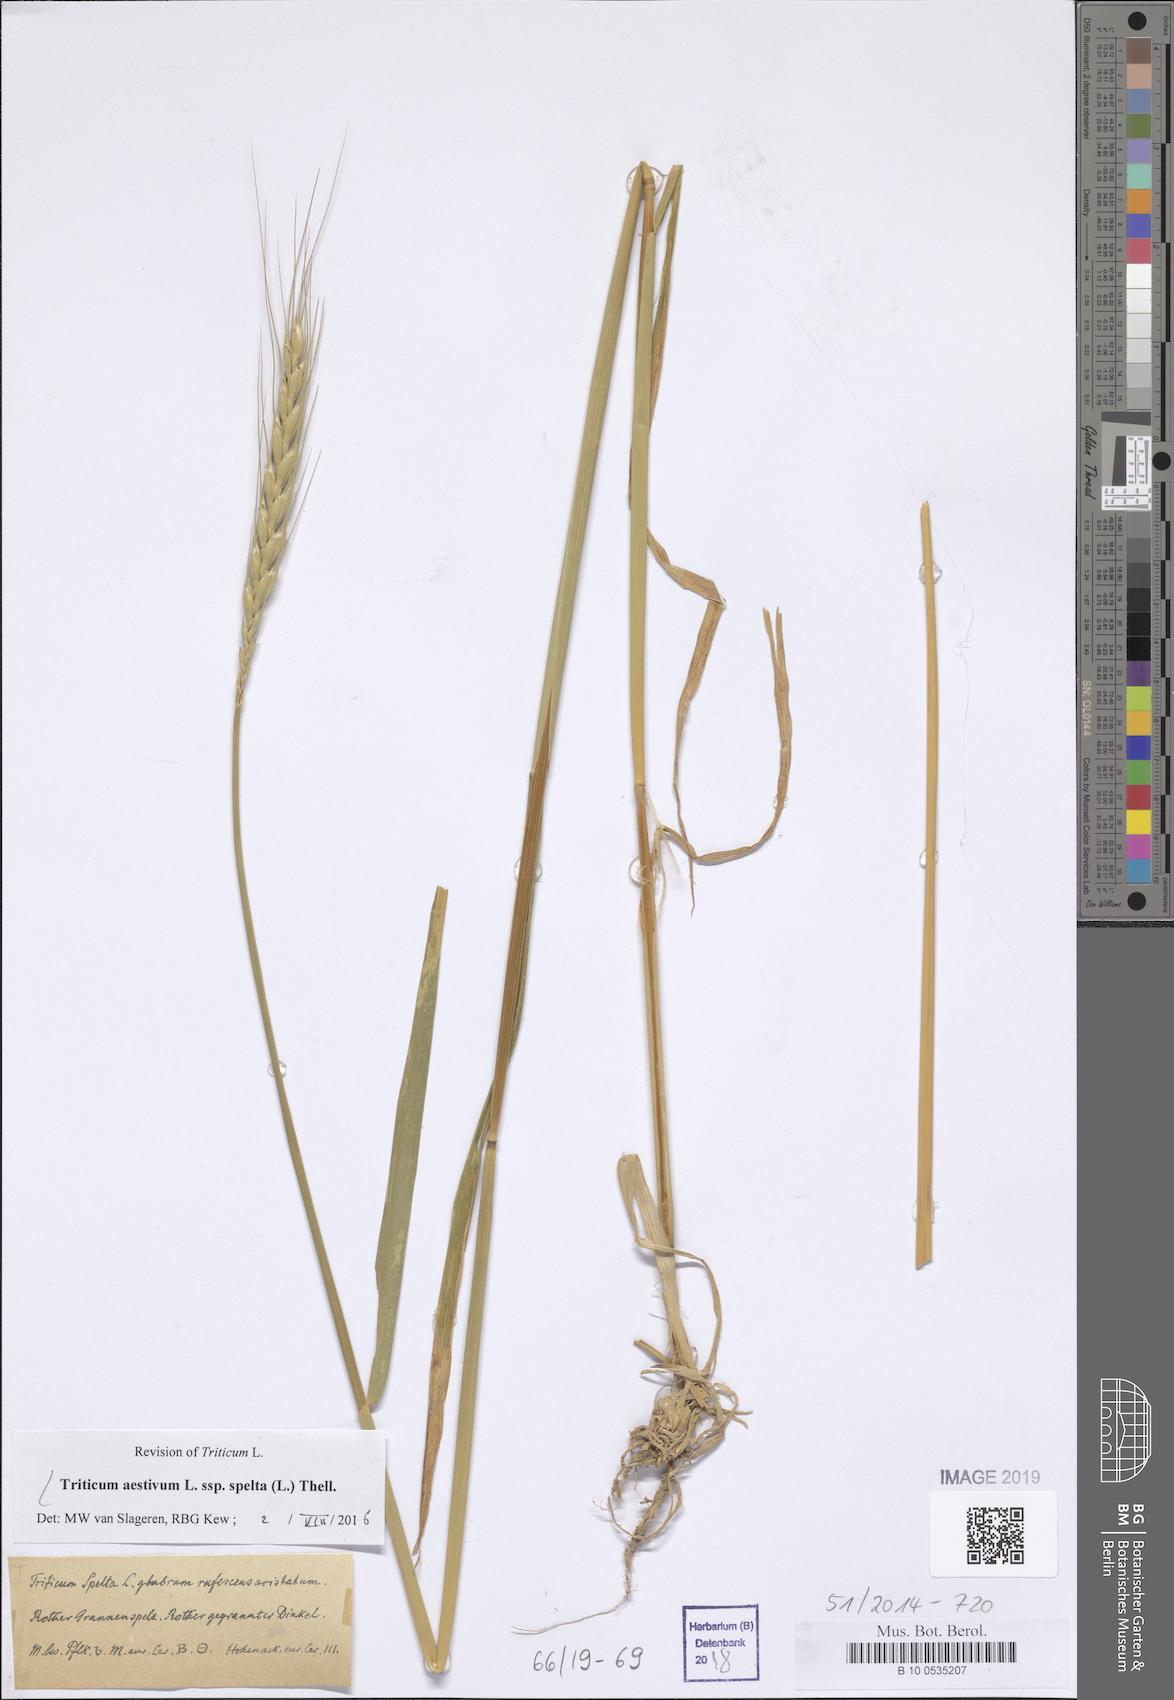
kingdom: Plantae
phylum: Tracheophyta
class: Liliopsida
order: Poales
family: Poaceae
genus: Triticum
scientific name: Triticum aestivum
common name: Common wheat
